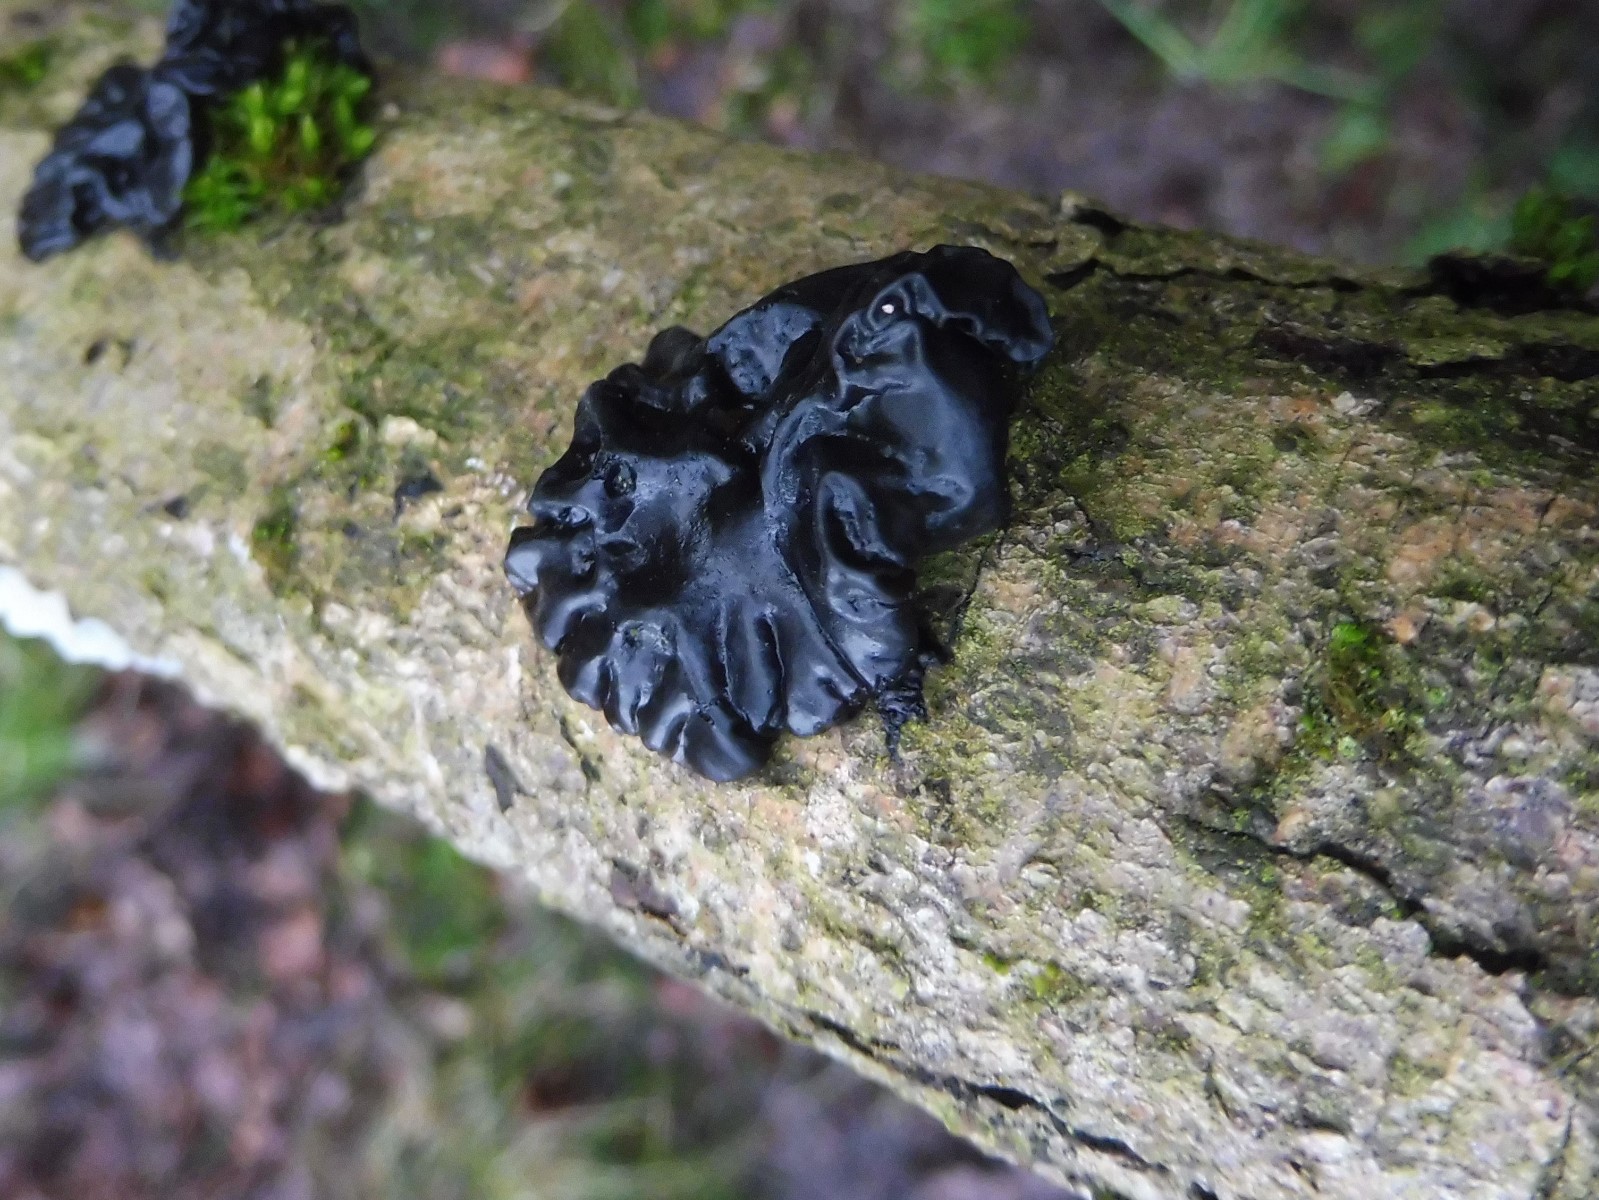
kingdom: Fungi
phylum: Basidiomycota
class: Agaricomycetes
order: Auriculariales
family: Auriculariaceae
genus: Exidia
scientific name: Exidia nigricans
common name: almindelig bævretop
